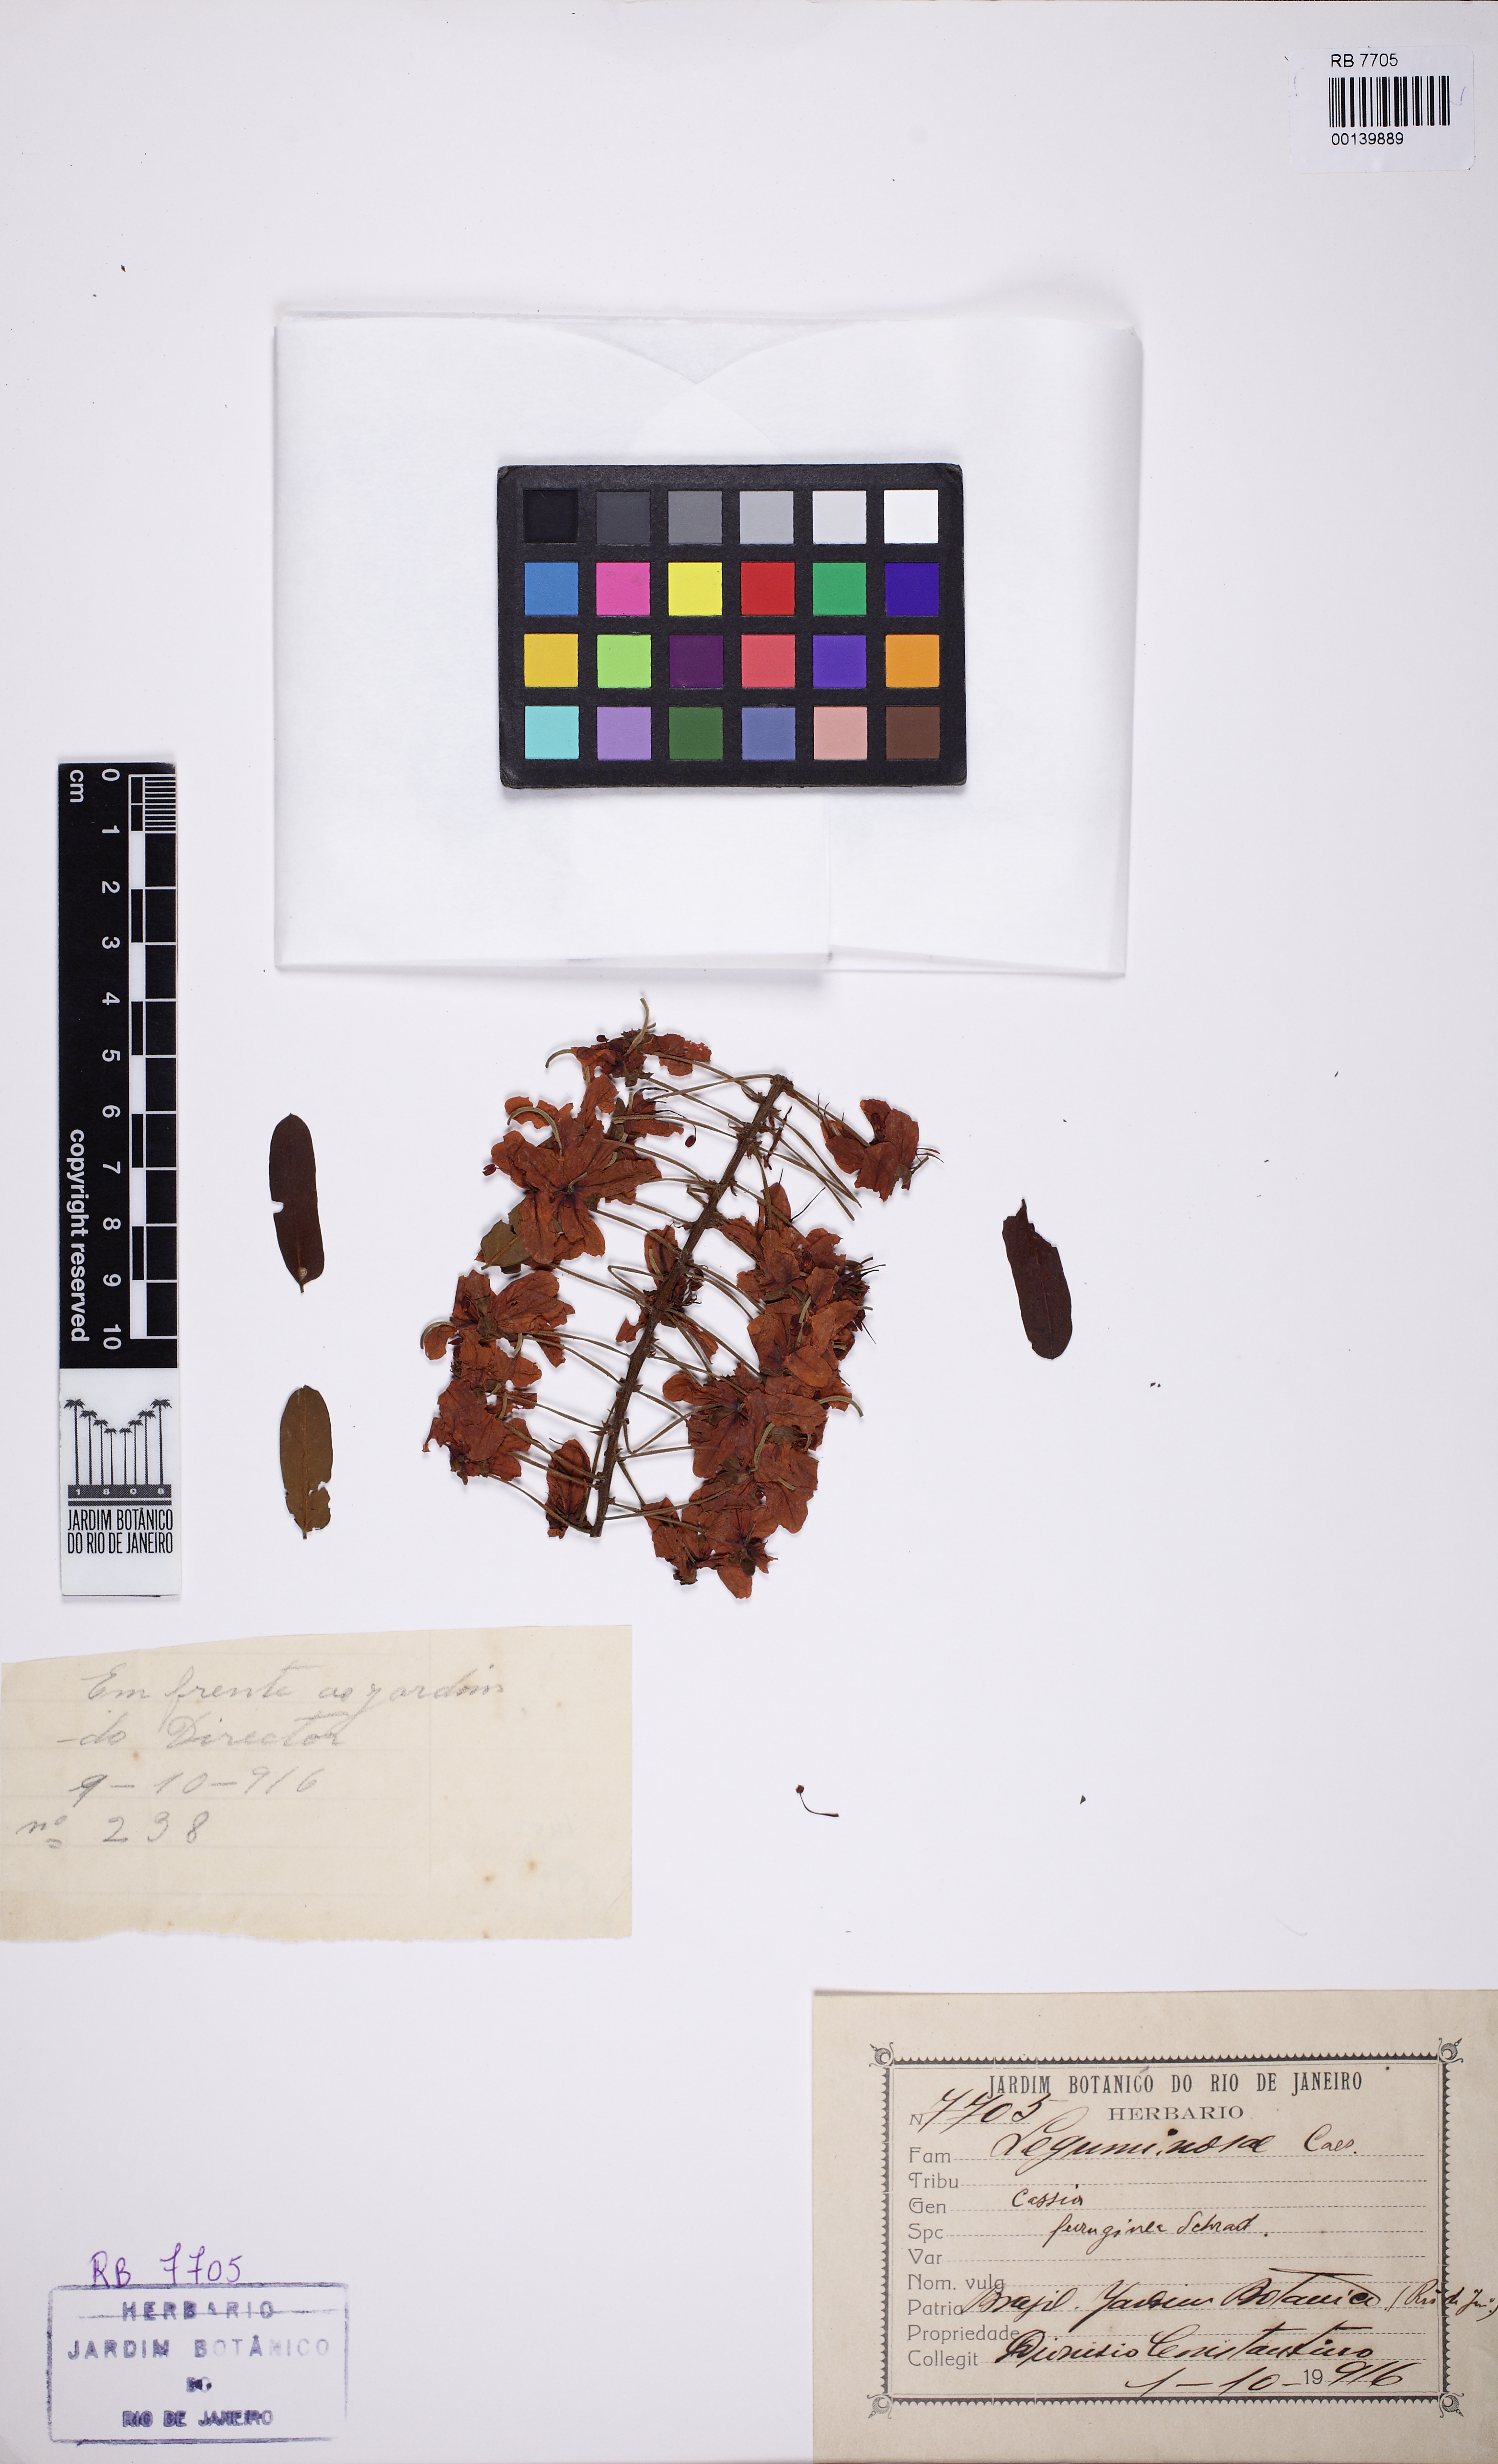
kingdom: Plantae
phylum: Tracheophyta
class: Magnoliopsida
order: Fabales
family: Fabaceae
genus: Cassia
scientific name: Cassia ferruginea
